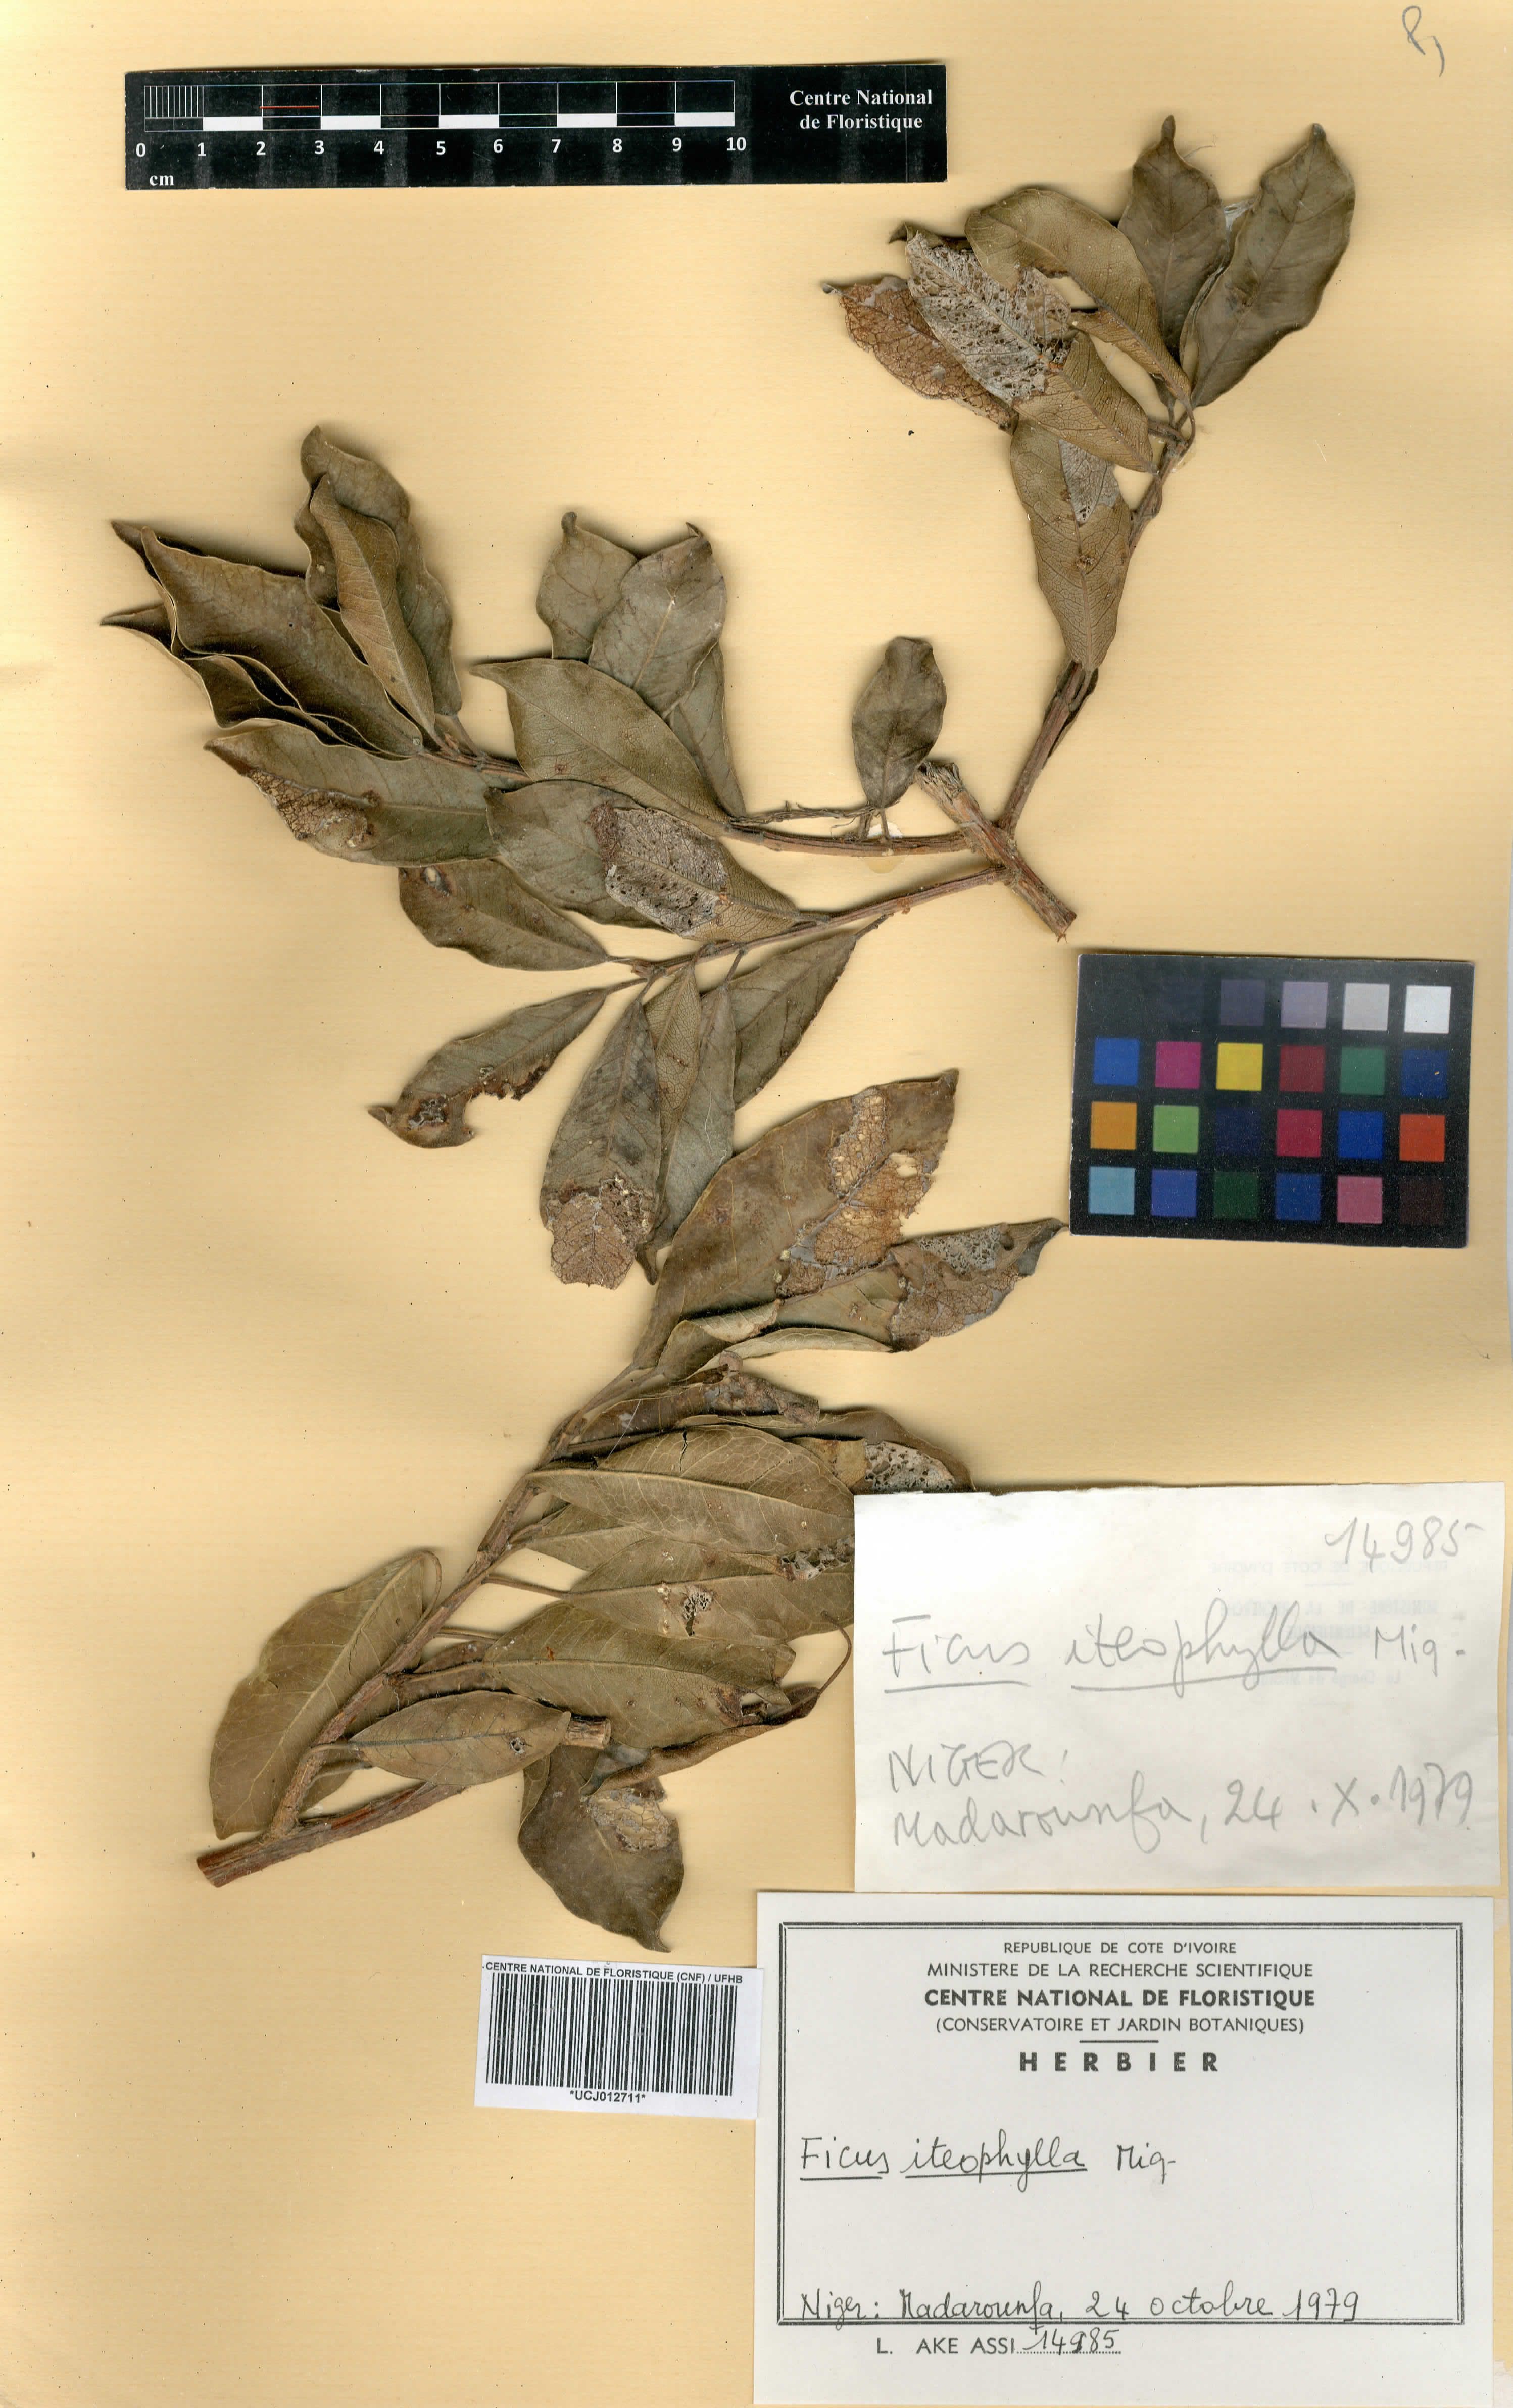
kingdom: Plantae
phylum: Tracheophyta
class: Magnoliopsida
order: Rosales
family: Moraceae
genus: Ficus
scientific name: Ficus thonningii
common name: Fig
